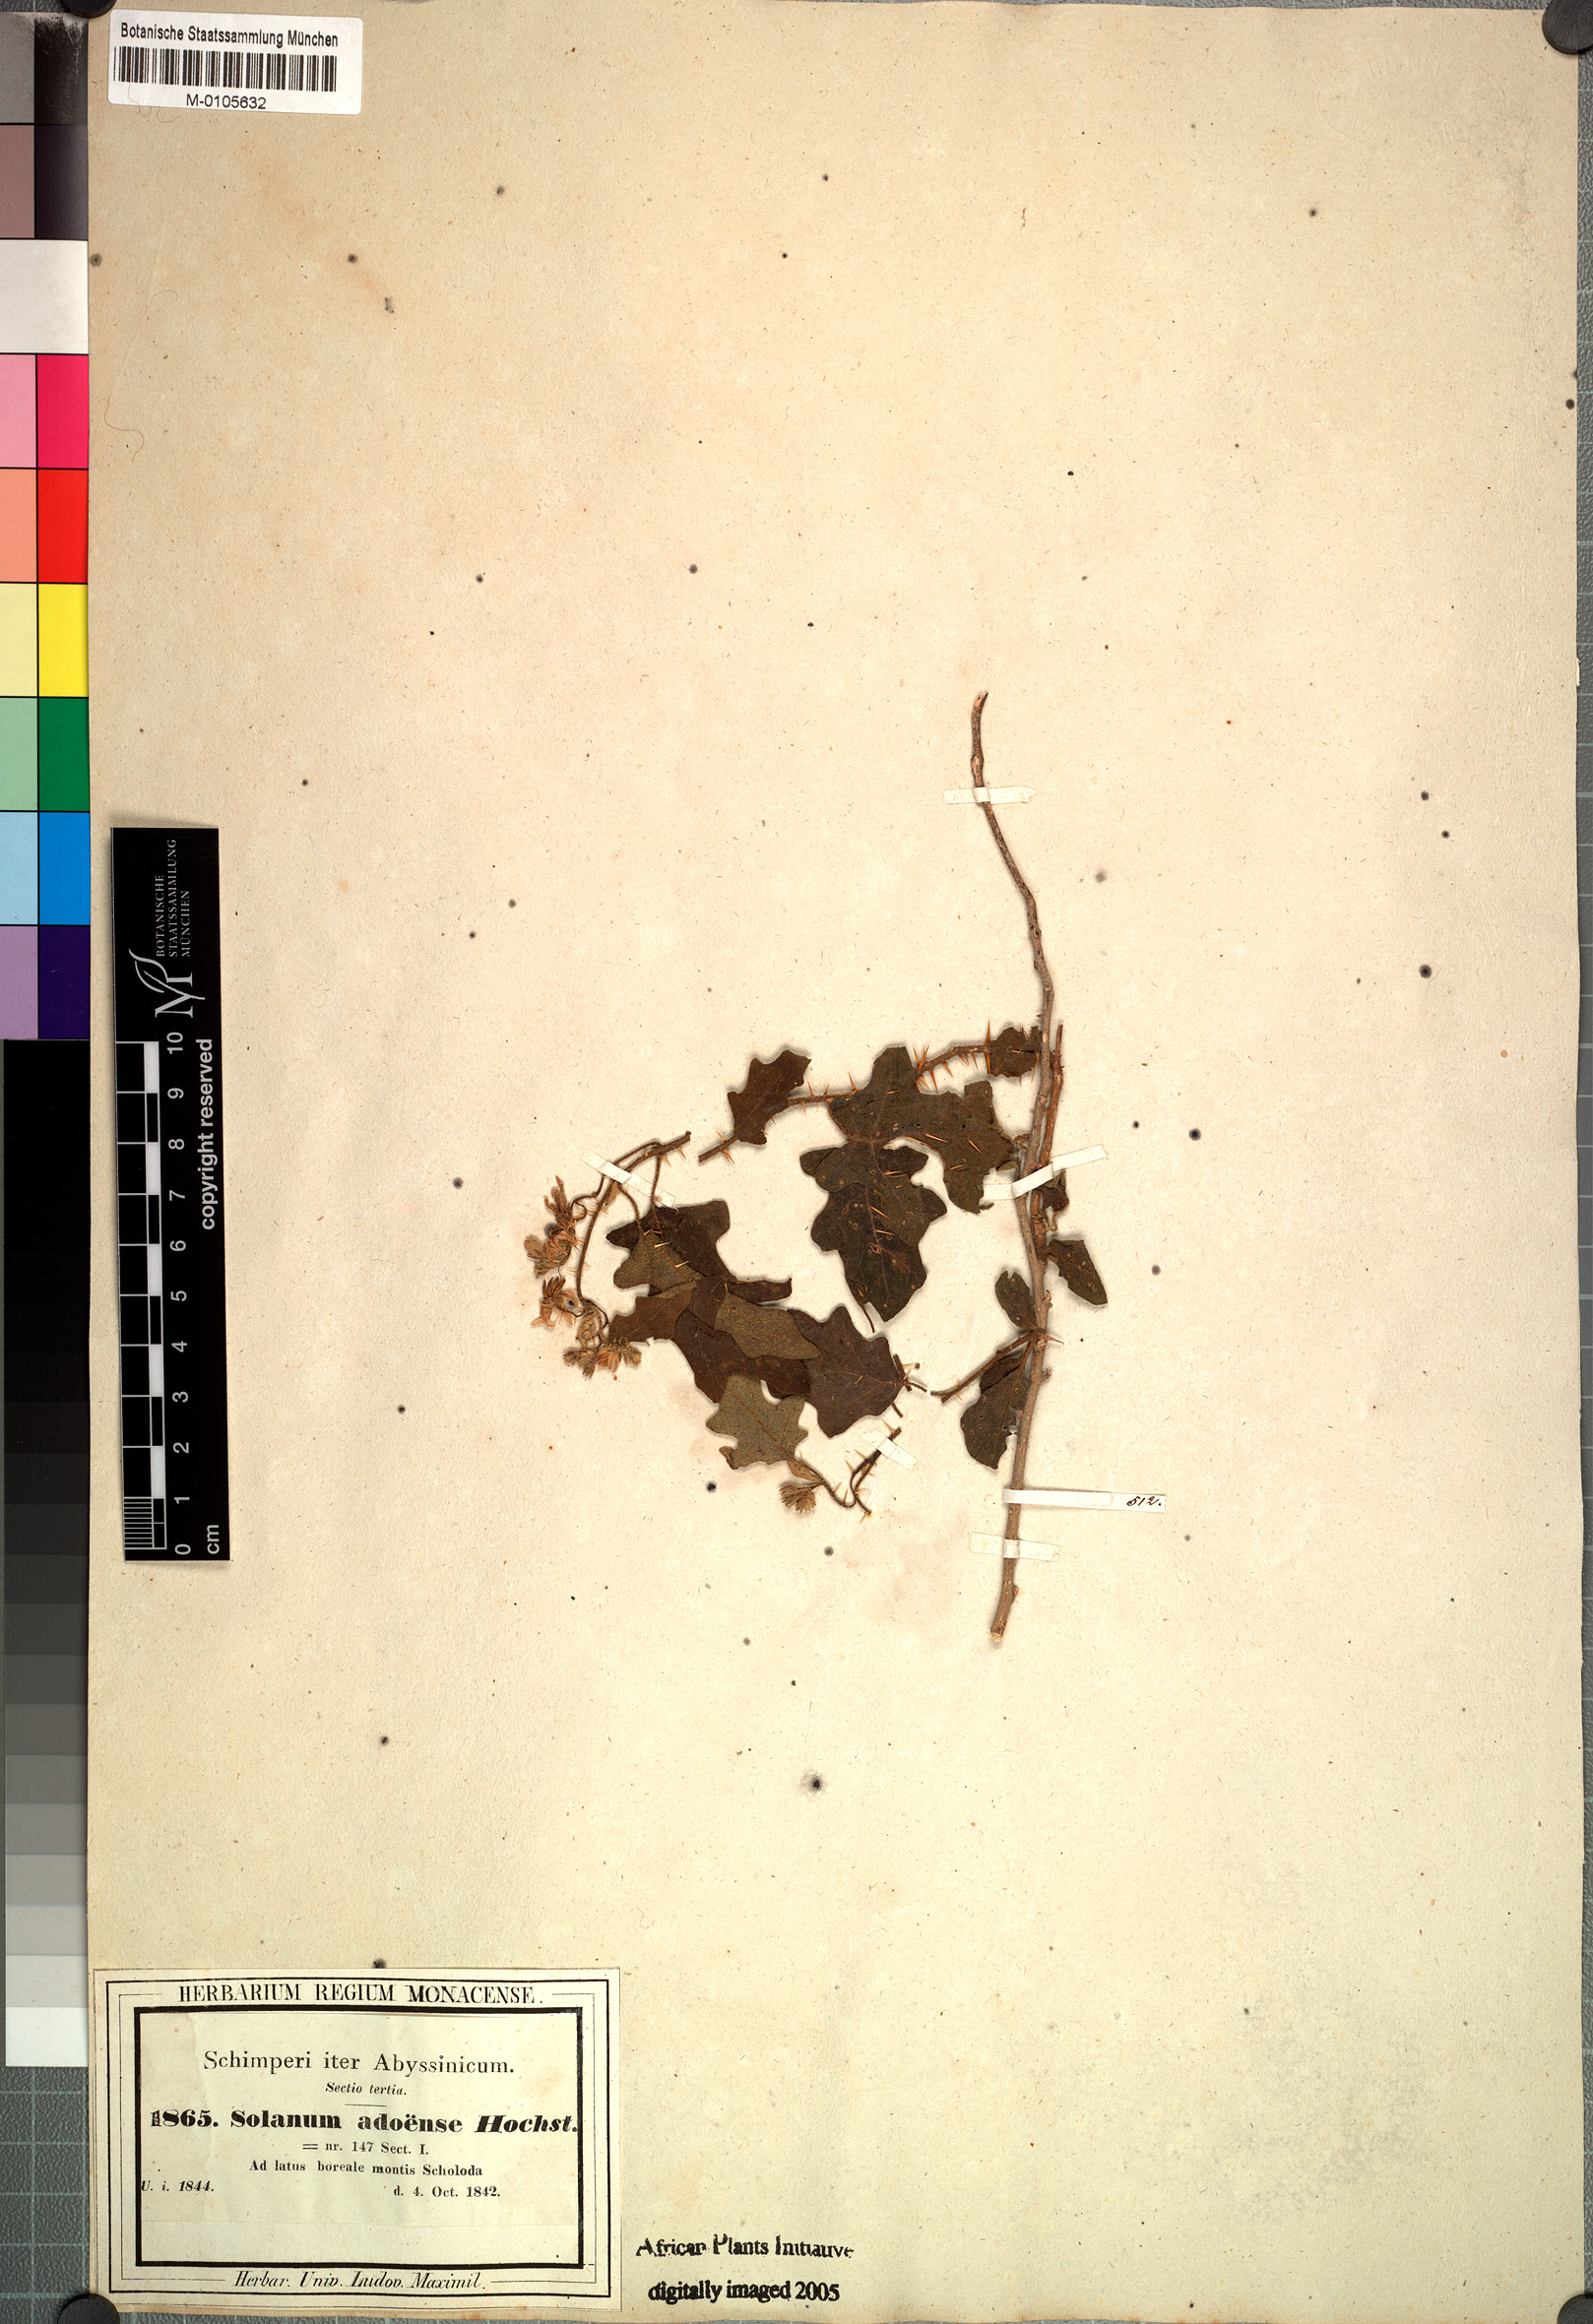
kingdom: Plantae
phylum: Tracheophyta
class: Magnoliopsida
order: Solanales
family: Solanaceae
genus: Solanum
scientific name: Solanum adoense
